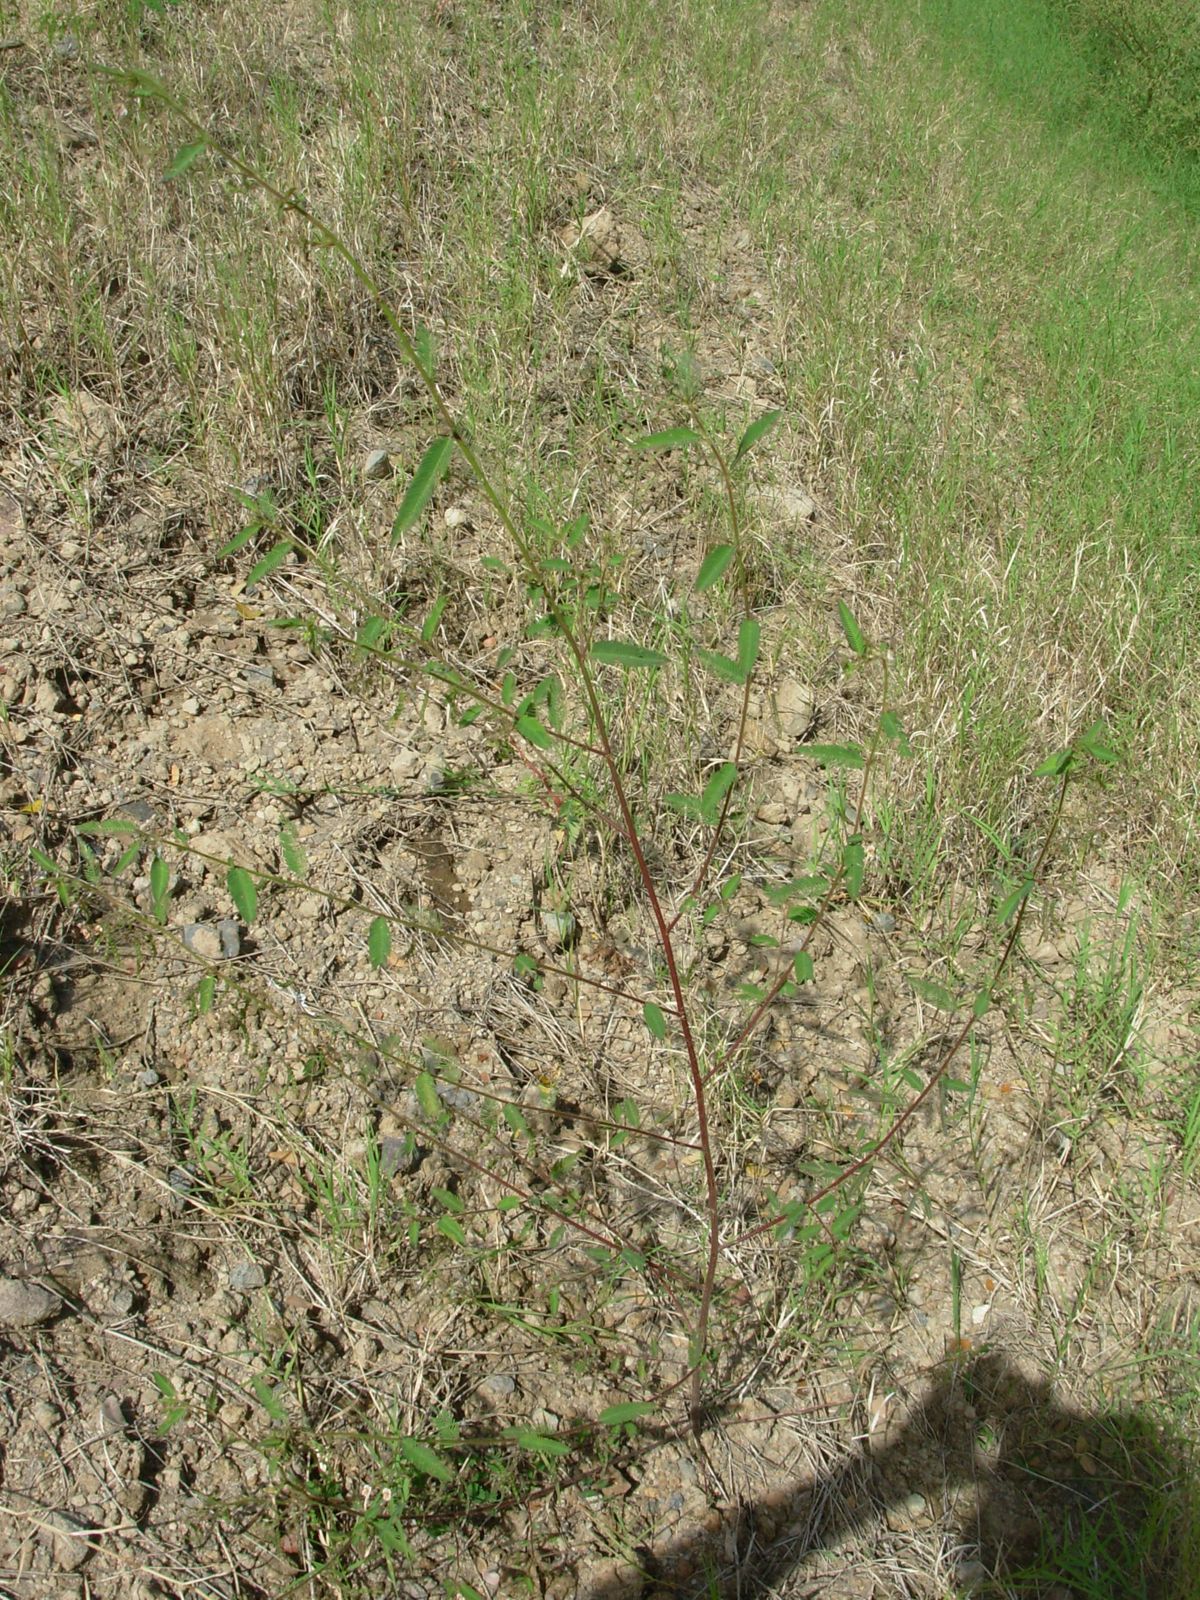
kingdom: Plantae
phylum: Tracheophyta
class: Magnoliopsida
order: Fabales
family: Fabaceae
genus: Aeschynomene
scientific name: Aeschynomene americana
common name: Joint-vetch
